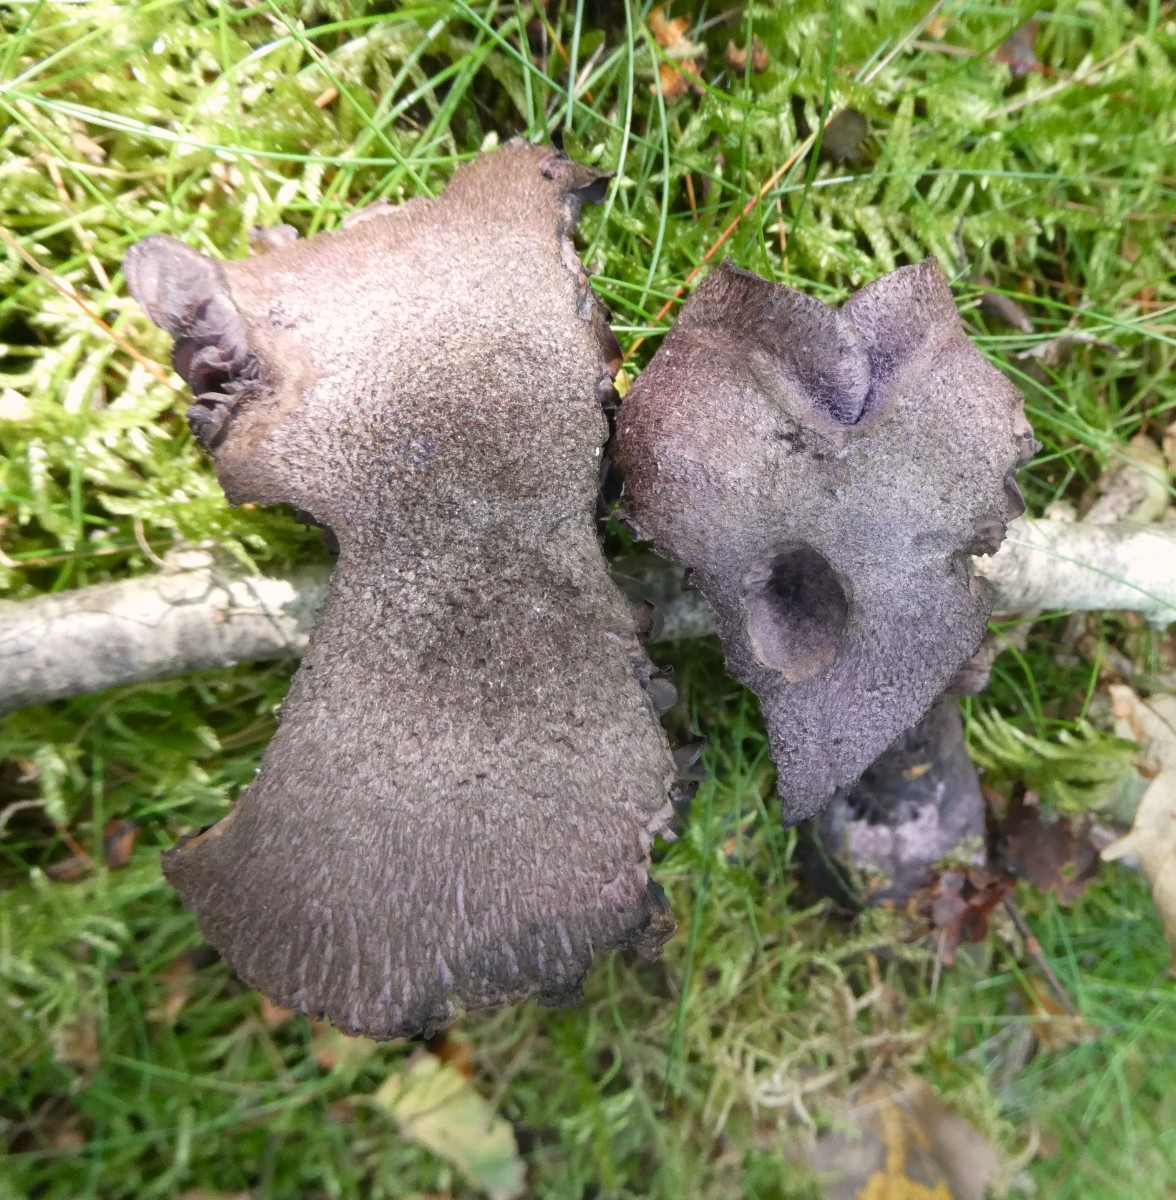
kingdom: Fungi
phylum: Basidiomycota
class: Agaricomycetes
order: Agaricales
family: Cortinariaceae
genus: Cortinarius
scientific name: Cortinarius violaceus
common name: mørkviolet slørhat
